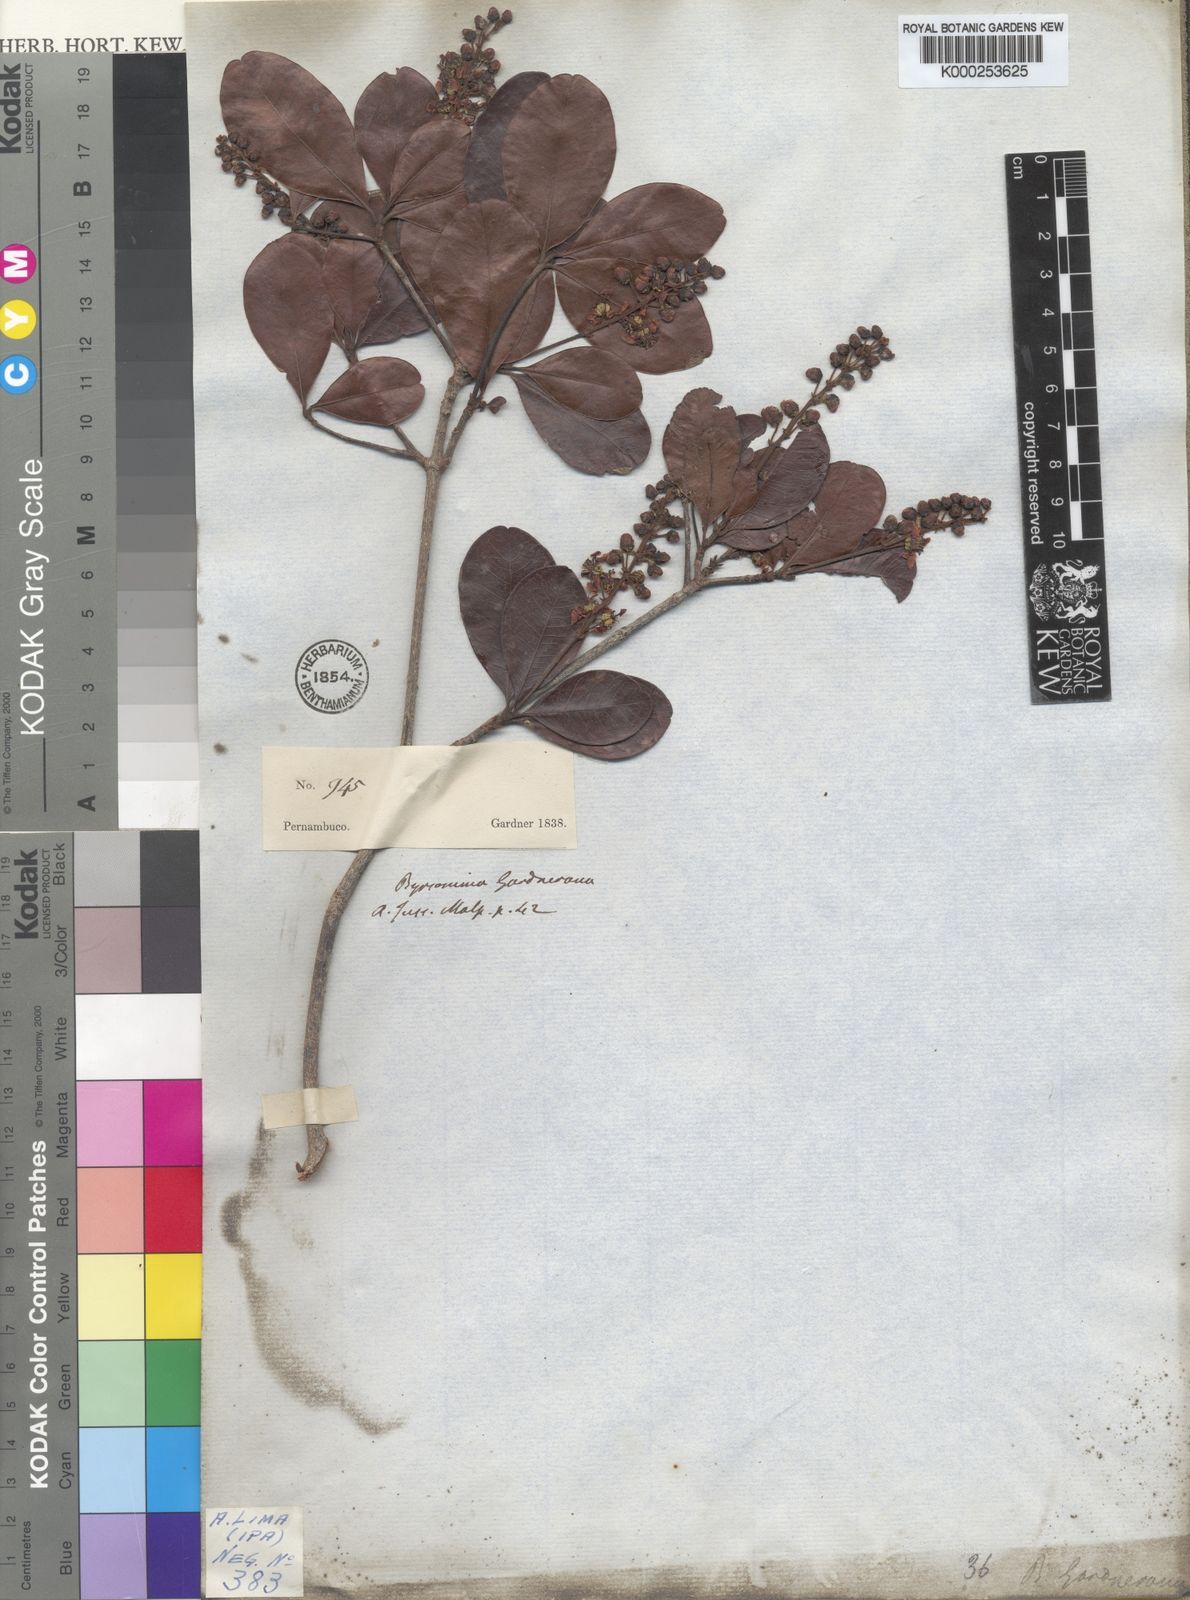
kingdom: Plantae
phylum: Tracheophyta
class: Magnoliopsida
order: Malpighiales
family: Malpighiaceae
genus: Byrsonima
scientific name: Byrsonima gardneriana
